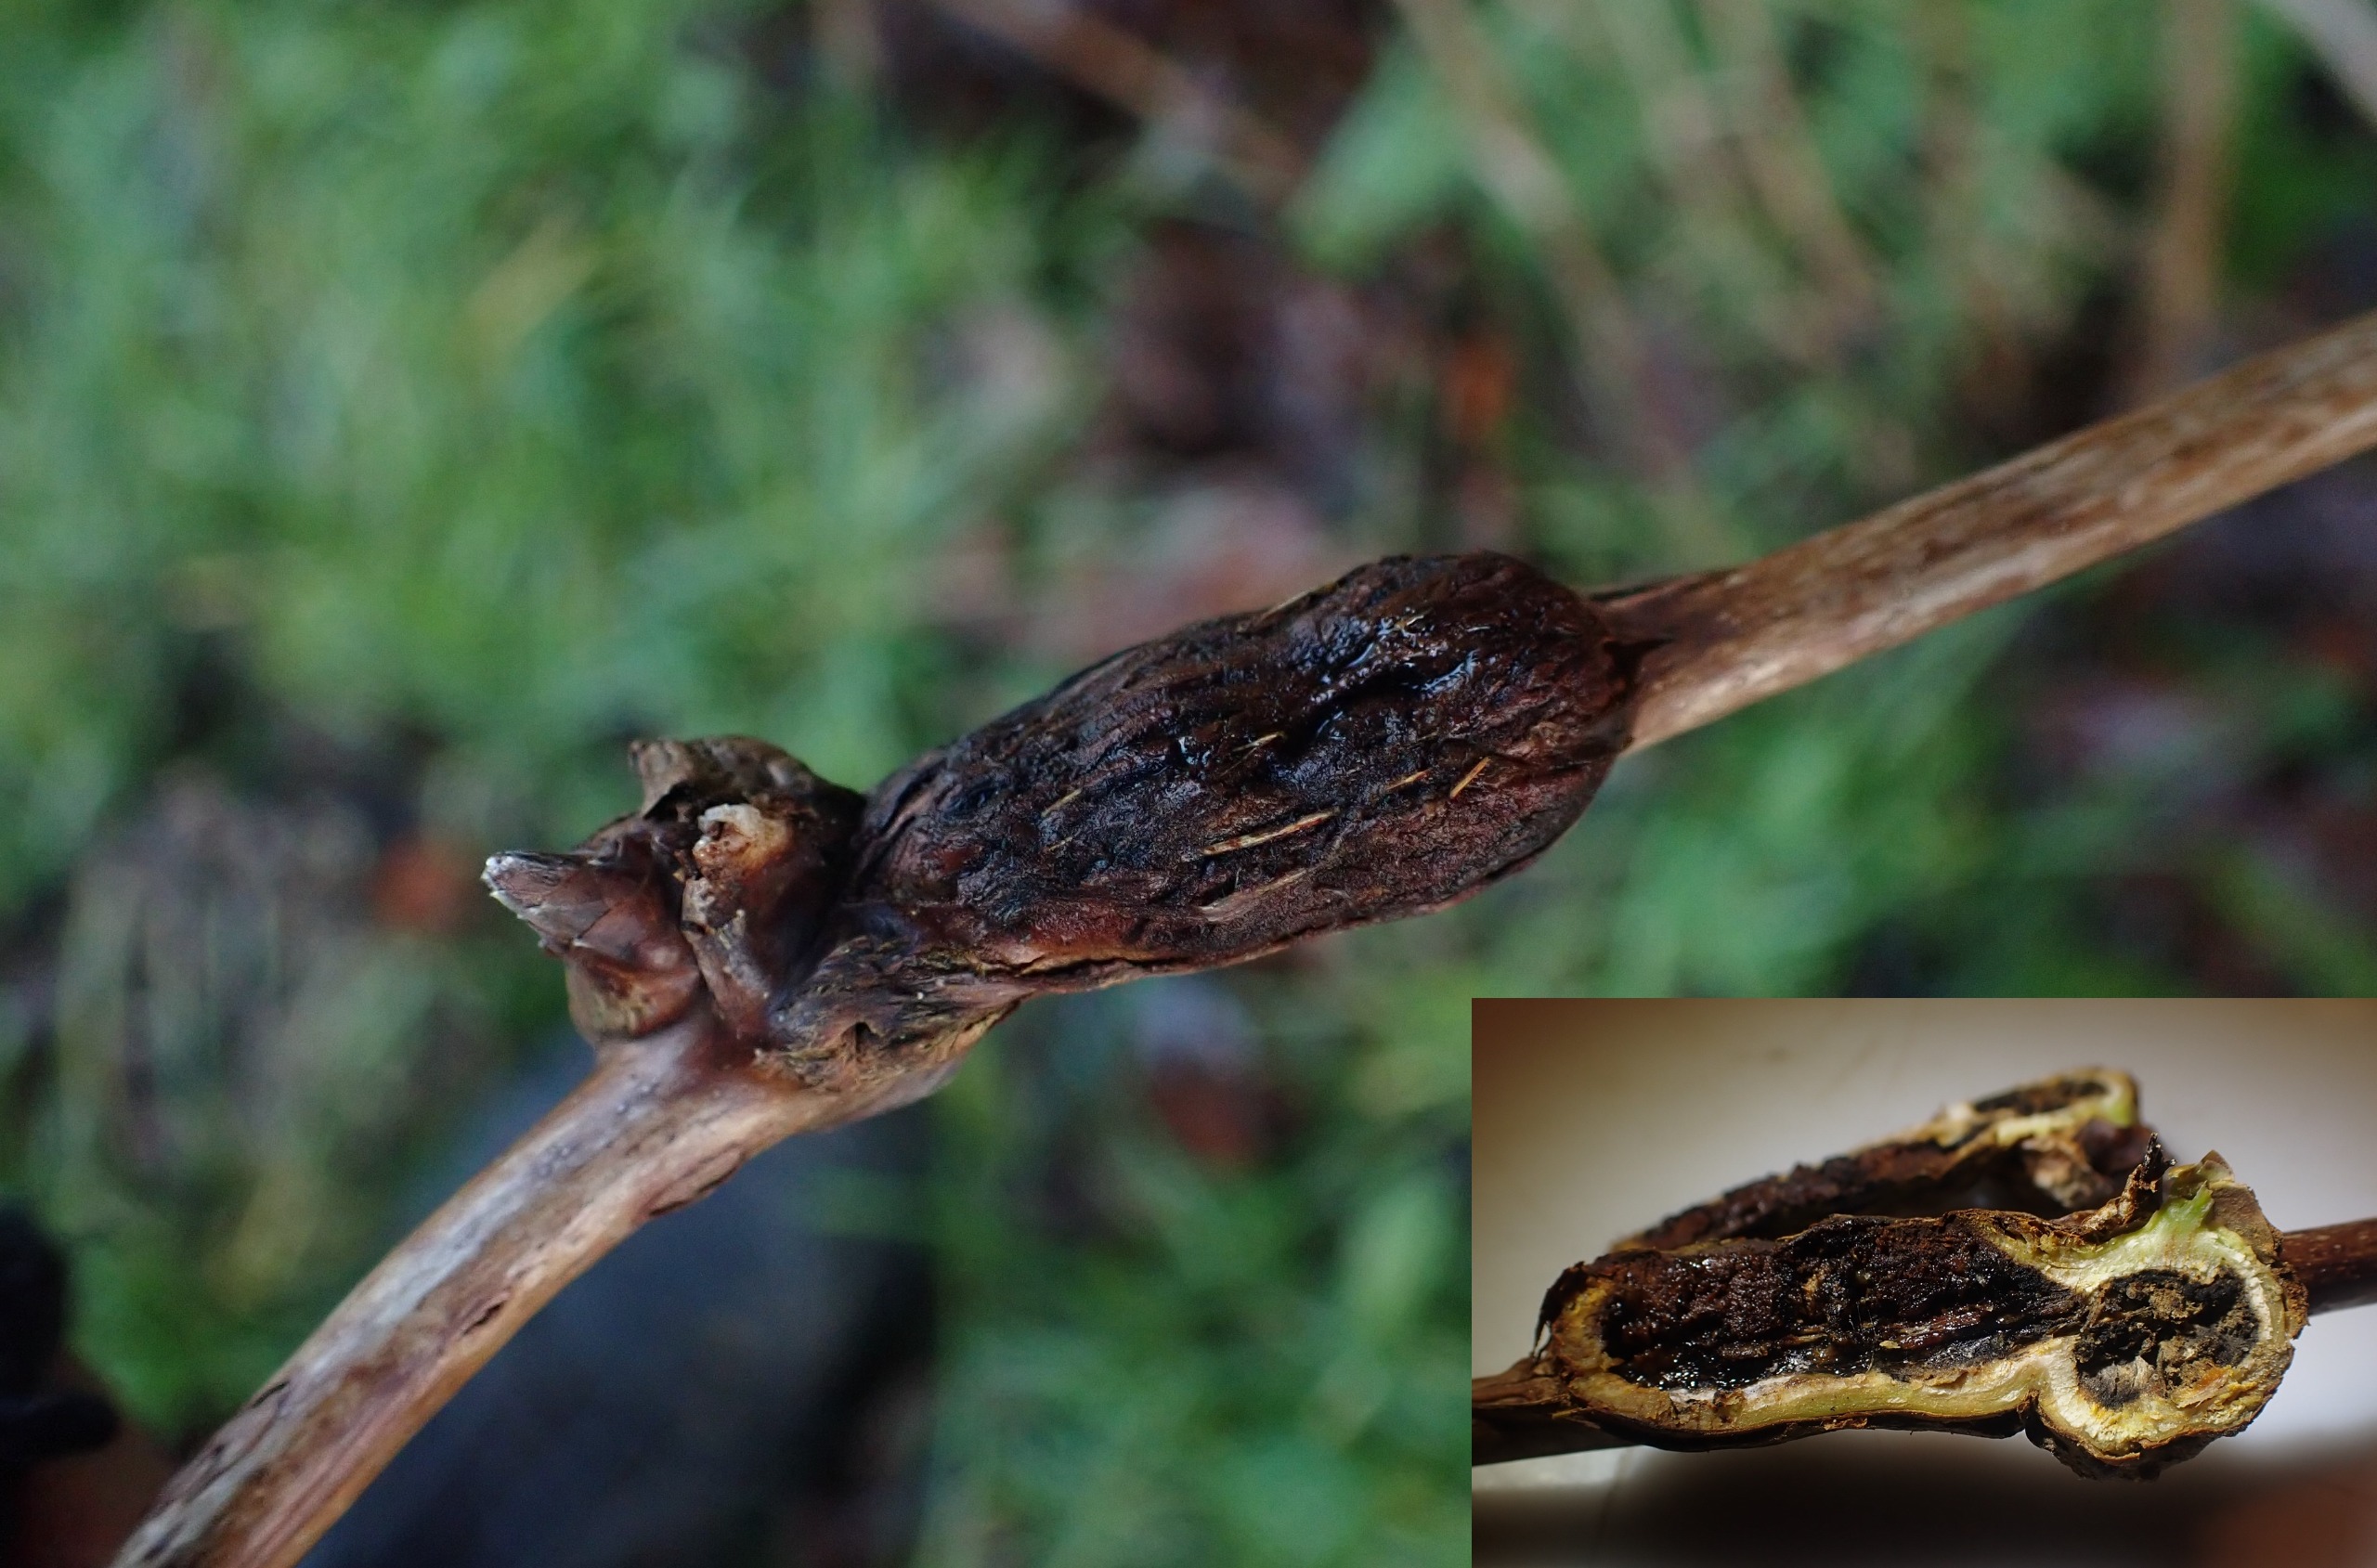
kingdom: Animalia
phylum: Arthropoda
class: Insecta
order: Diptera
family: Cecidomyiidae
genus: Lasioptera
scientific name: Lasioptera rubi
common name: Hindbærstængelgalmyg
